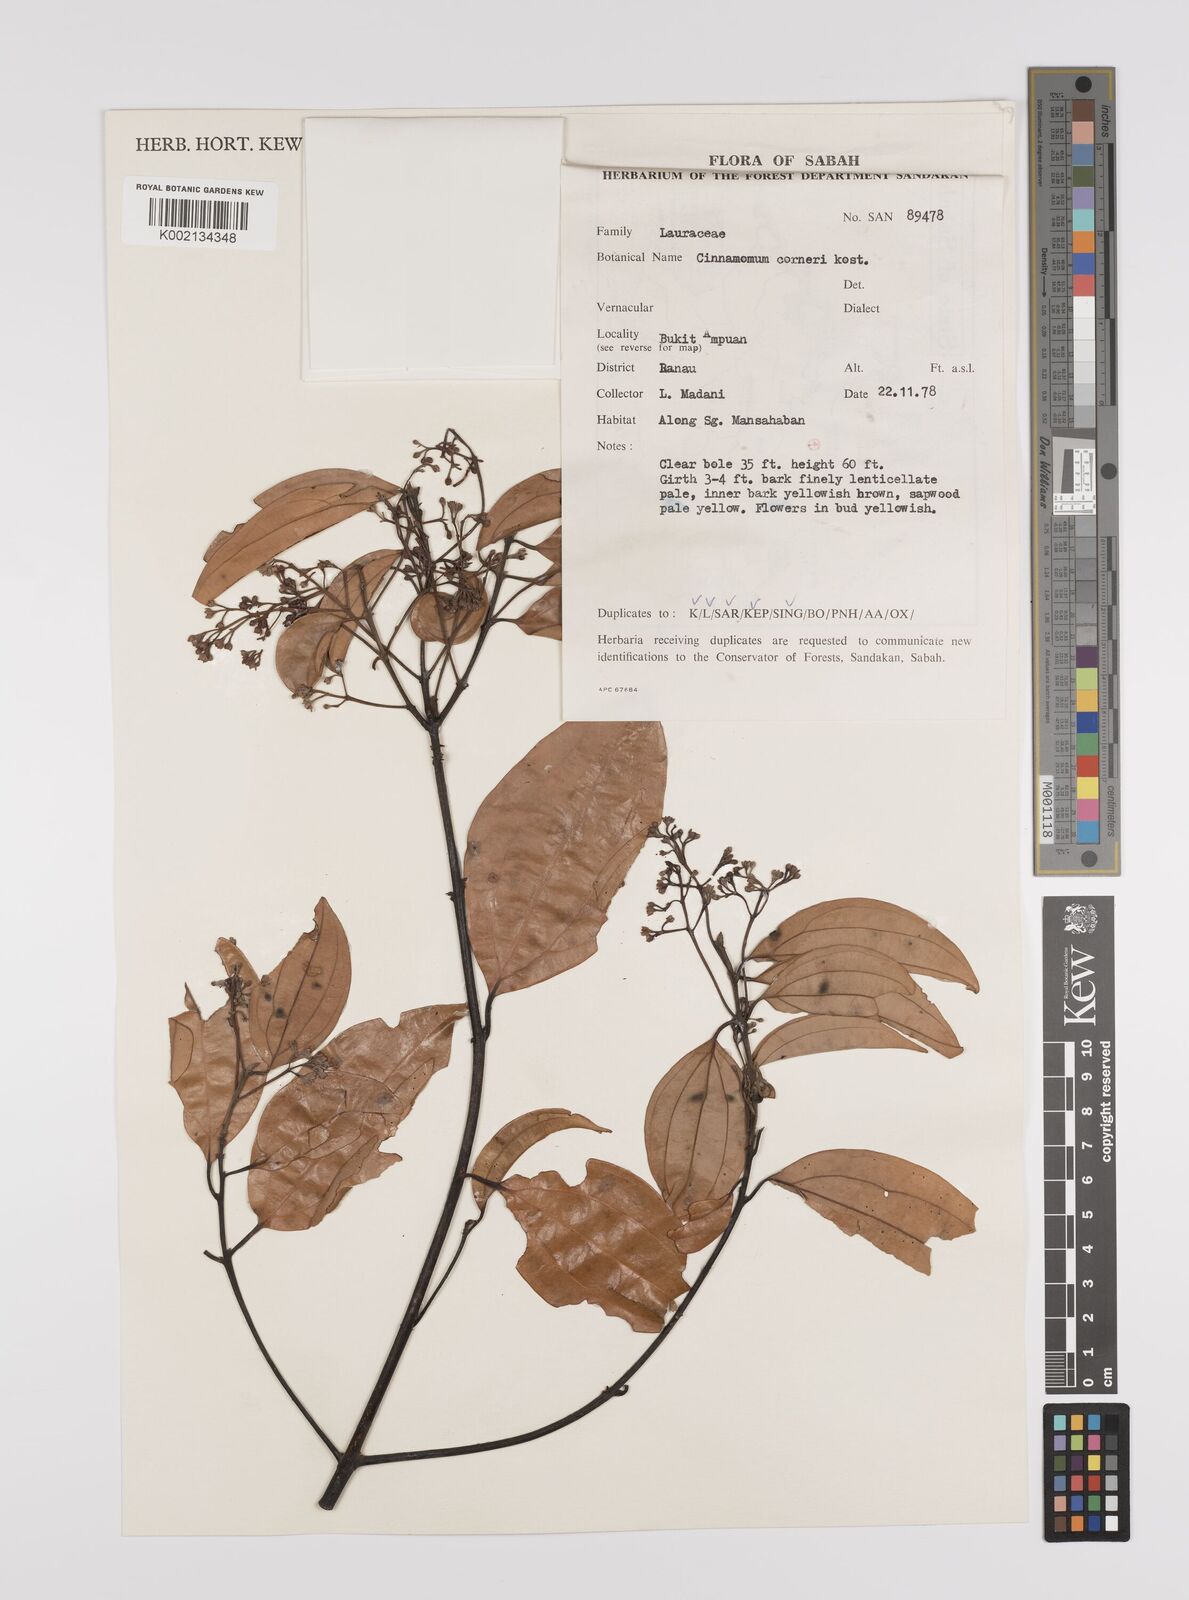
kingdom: Plantae
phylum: Tracheophyta
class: Magnoliopsida
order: Laurales
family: Lauraceae
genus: Cinnamomum
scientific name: Cinnamomum corneri
